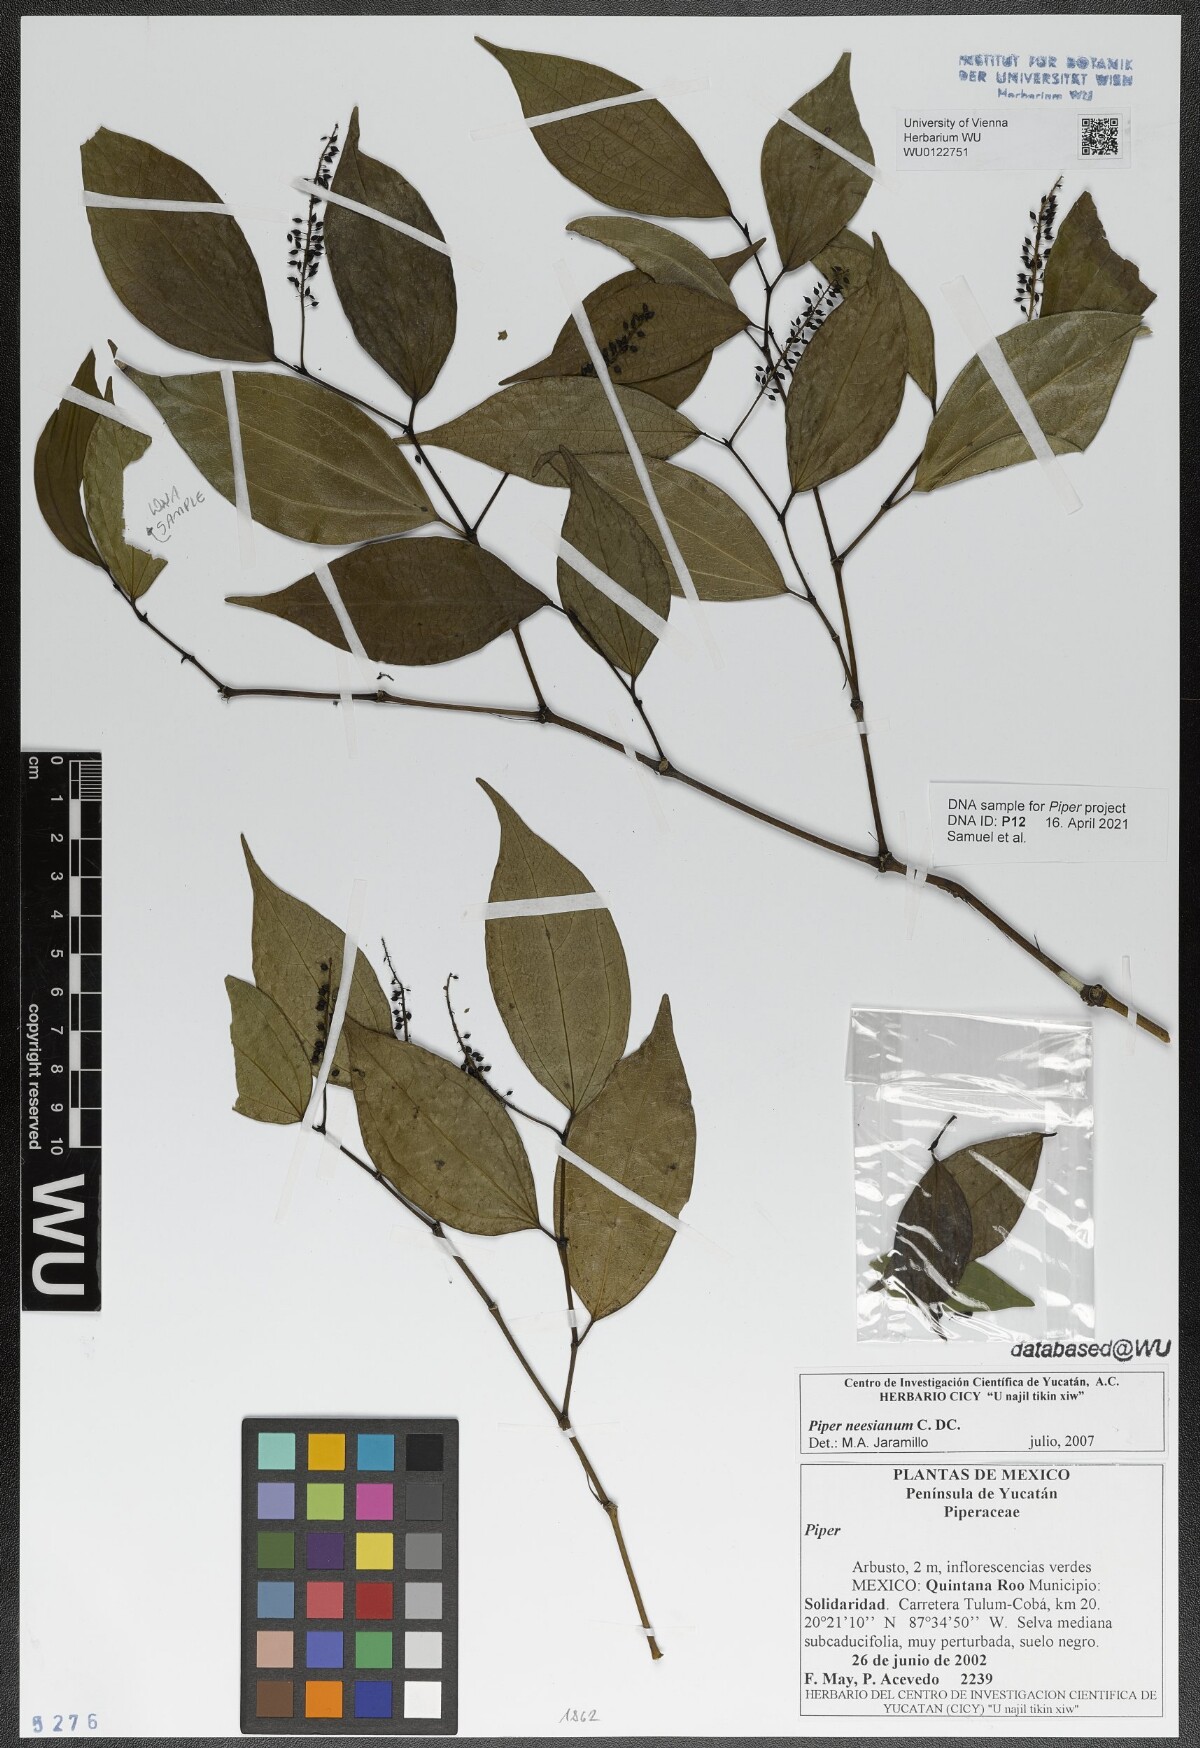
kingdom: Plantae
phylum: Tracheophyta
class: Magnoliopsida
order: Piperales
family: Piperaceae
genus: Piper
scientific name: Piper neesianum
